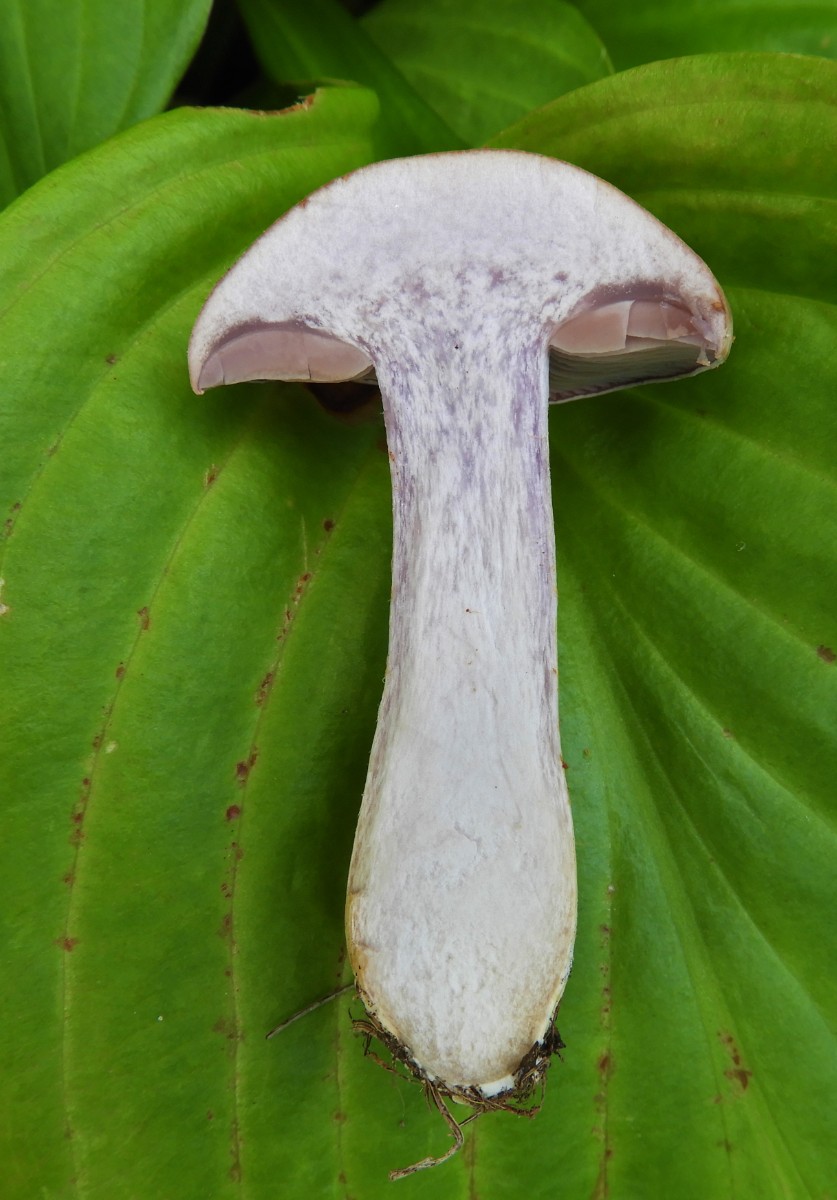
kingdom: Fungi
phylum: Basidiomycota
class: Agaricomycetes
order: Agaricales
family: Cortinariaceae
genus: Cortinarius
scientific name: Cortinarius
